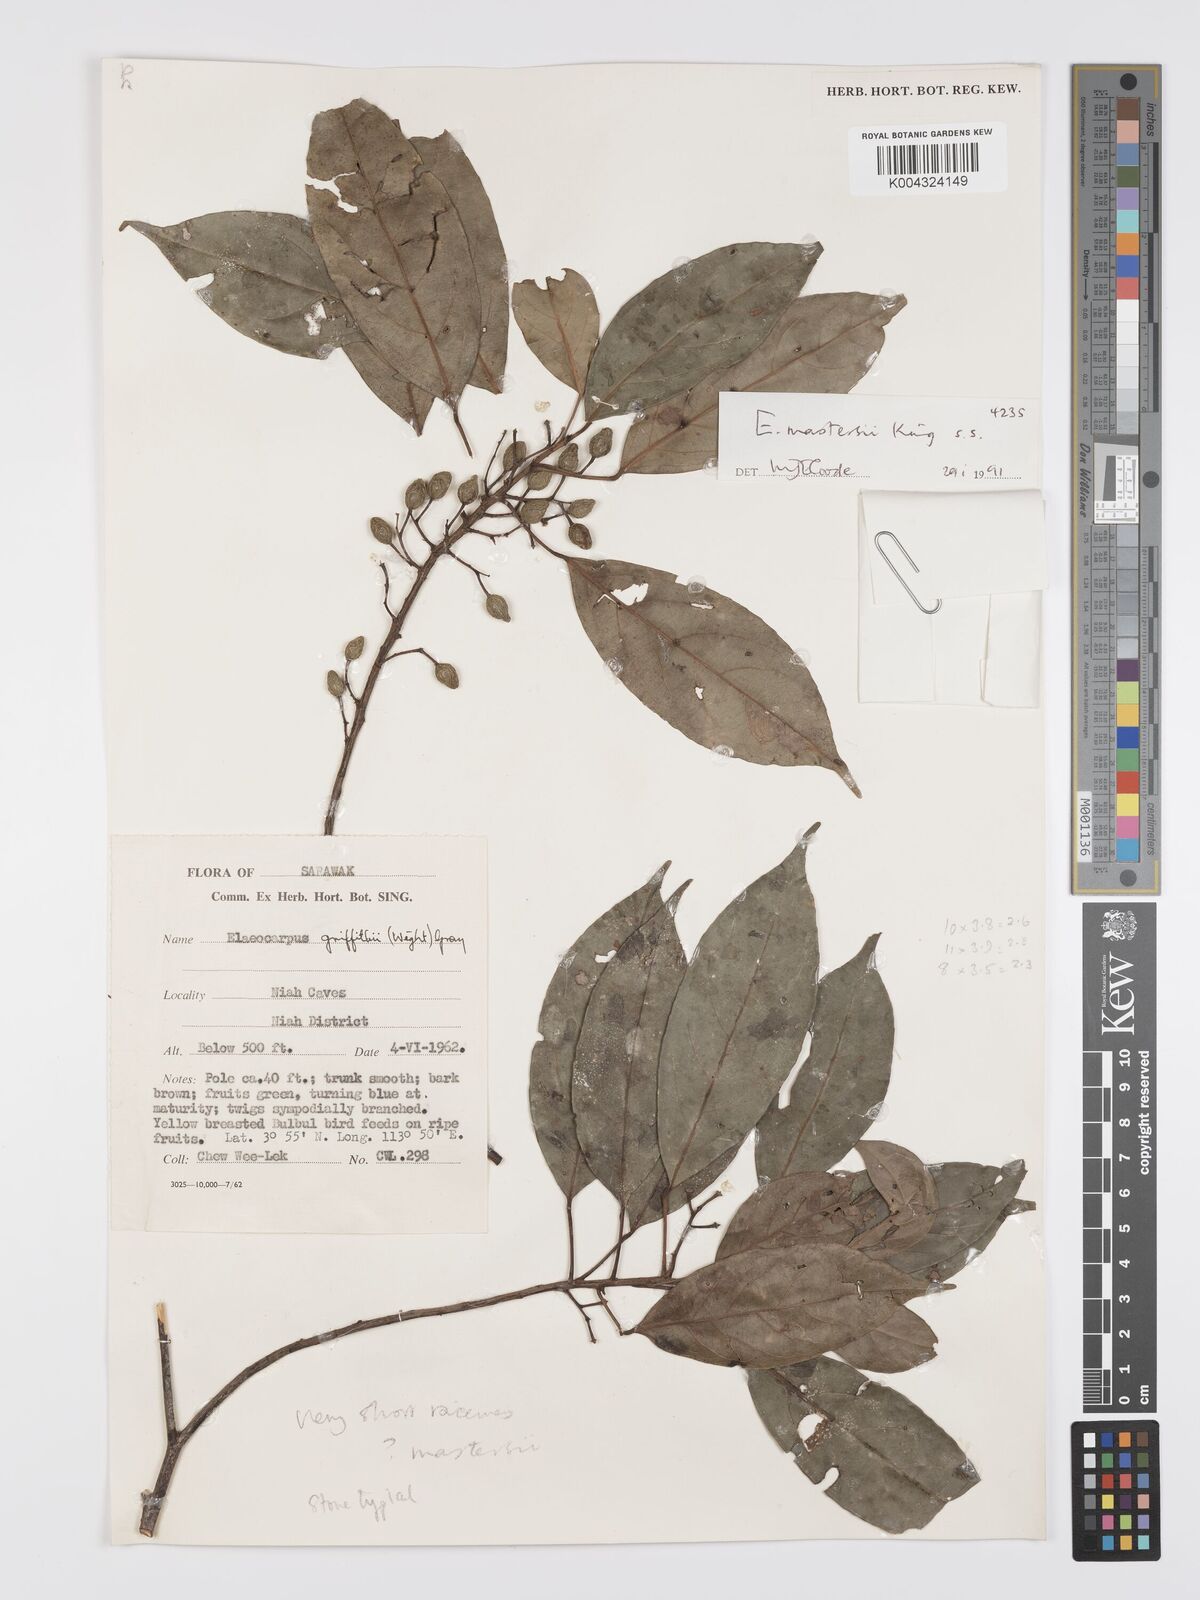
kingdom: Plantae
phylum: Tracheophyta
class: Magnoliopsida
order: Oxalidales
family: Elaeocarpaceae
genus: Elaeocarpus
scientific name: Elaeocarpus mastersii
